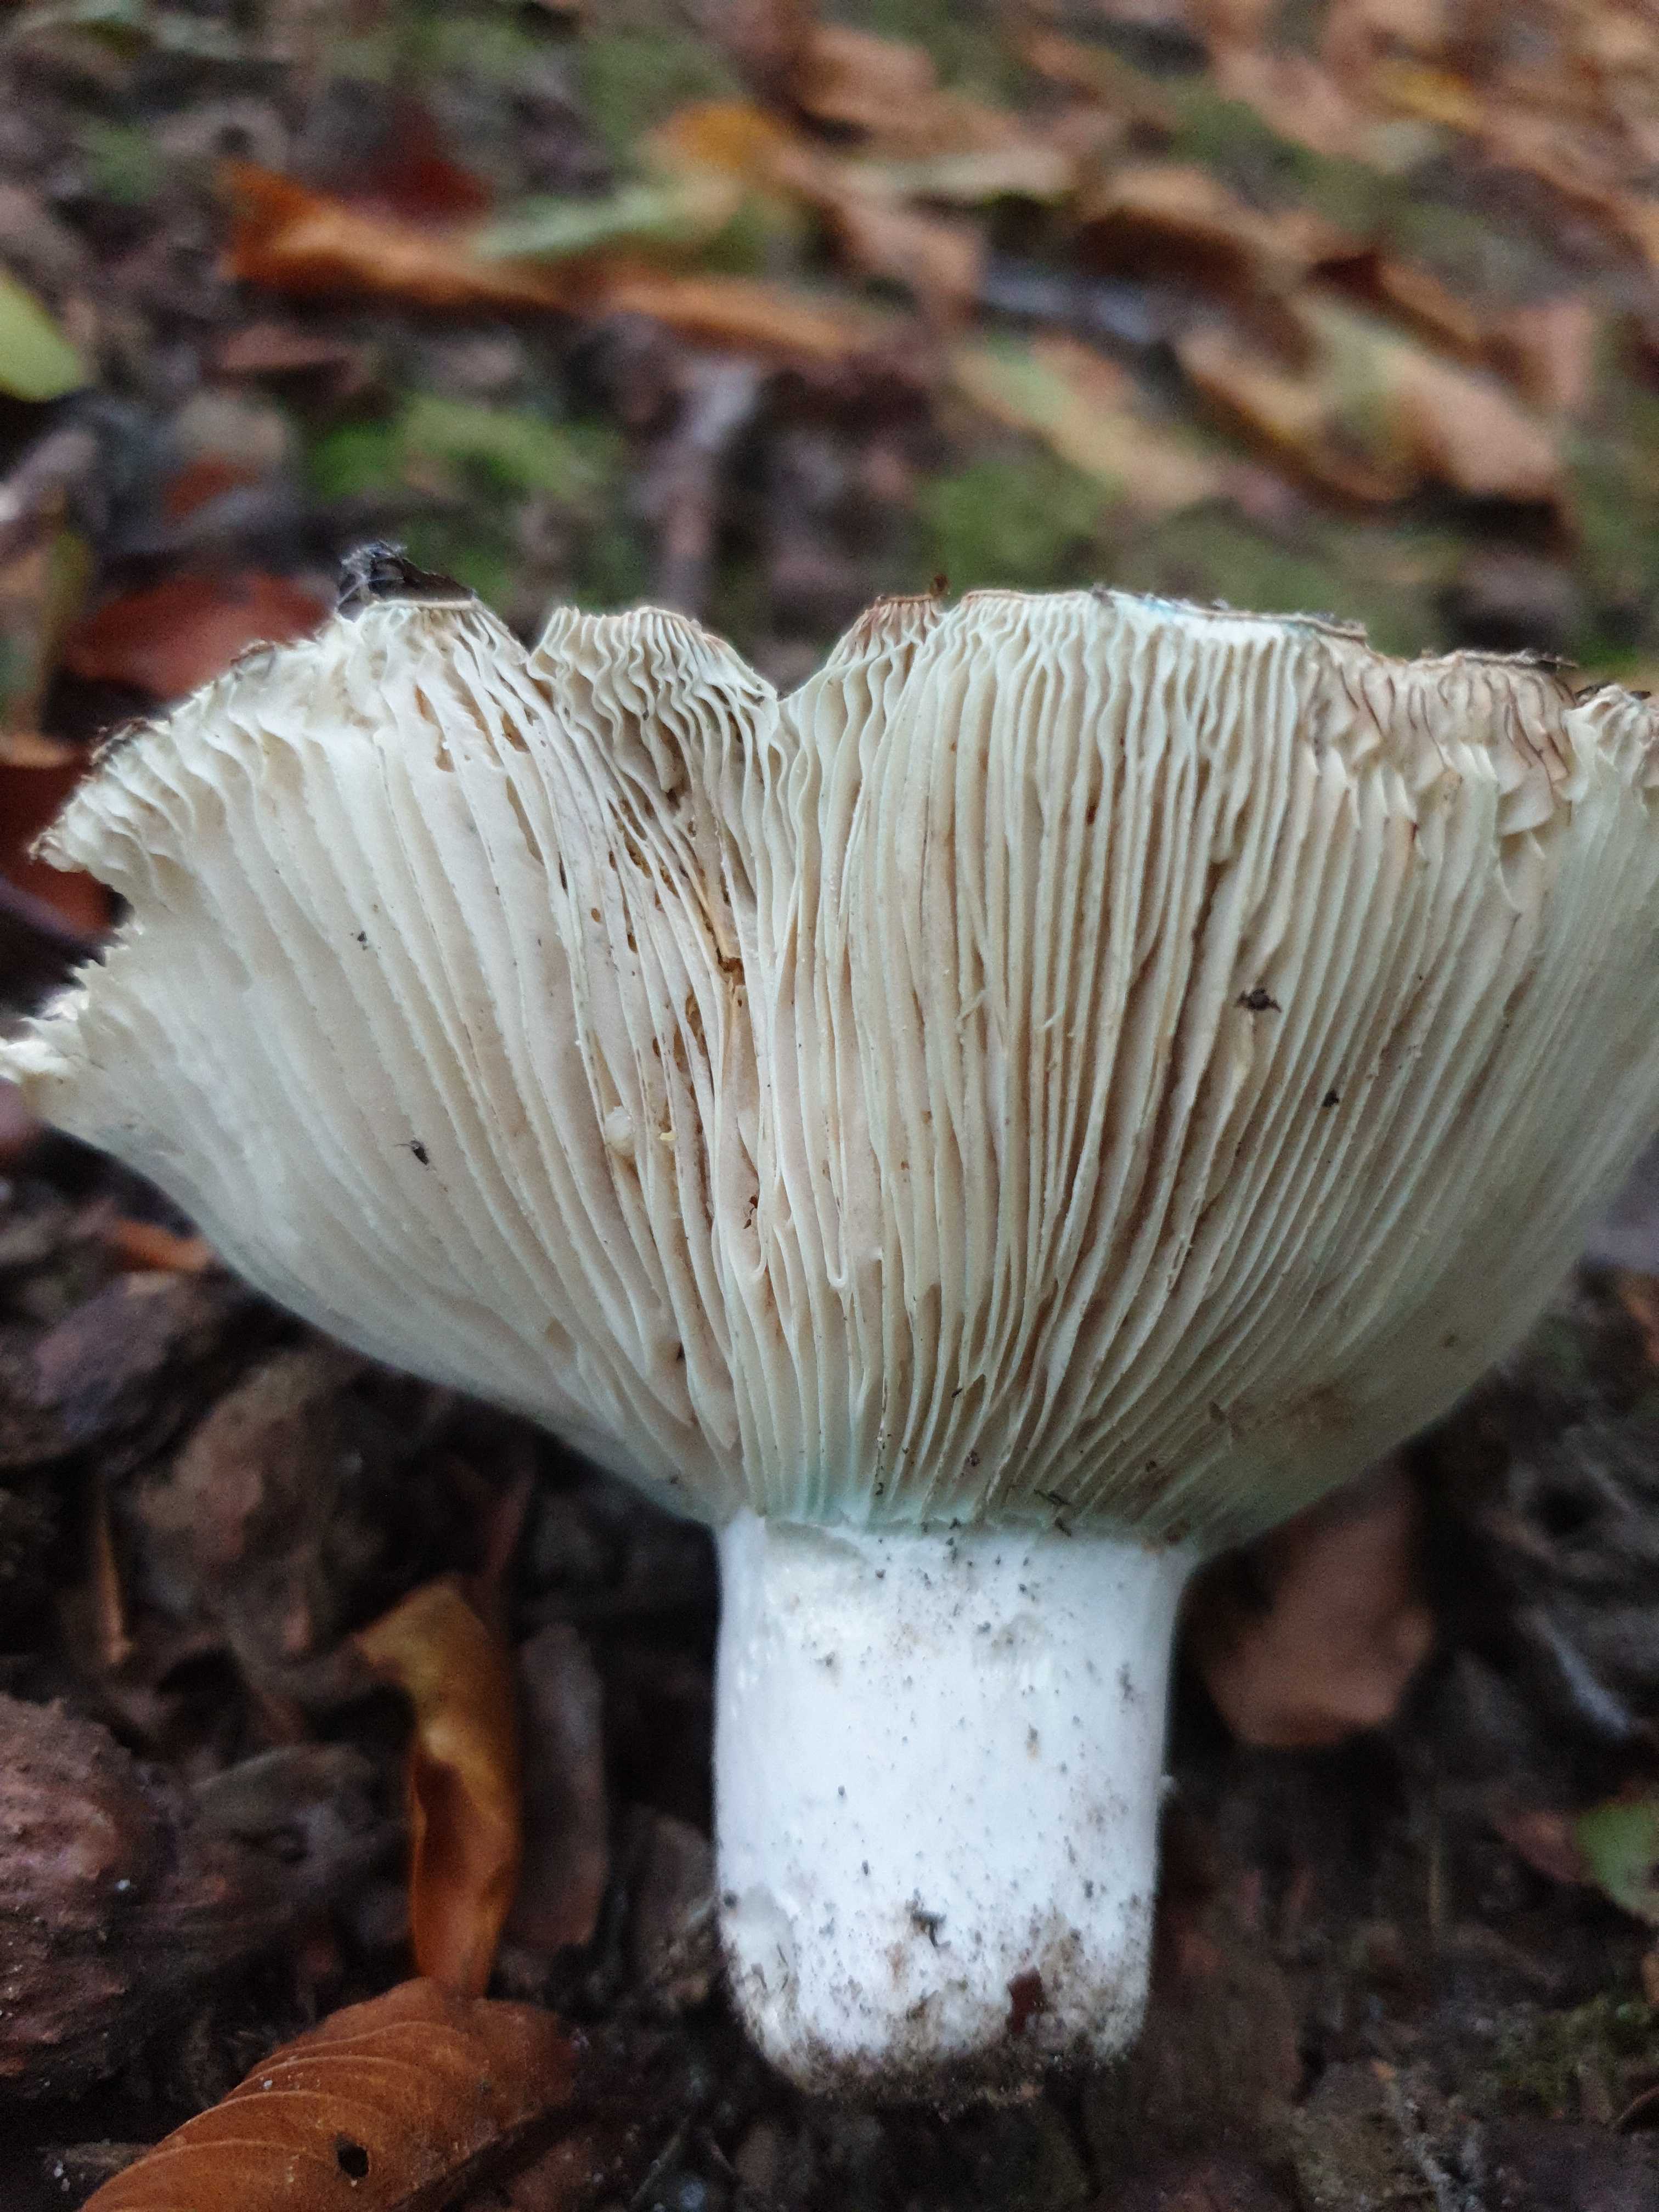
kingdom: Fungi
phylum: Basidiomycota
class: Agaricomycetes
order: Russulales
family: Russulaceae
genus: Russula
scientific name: Russula chloroides
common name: grønhalset tragt-skørhat
